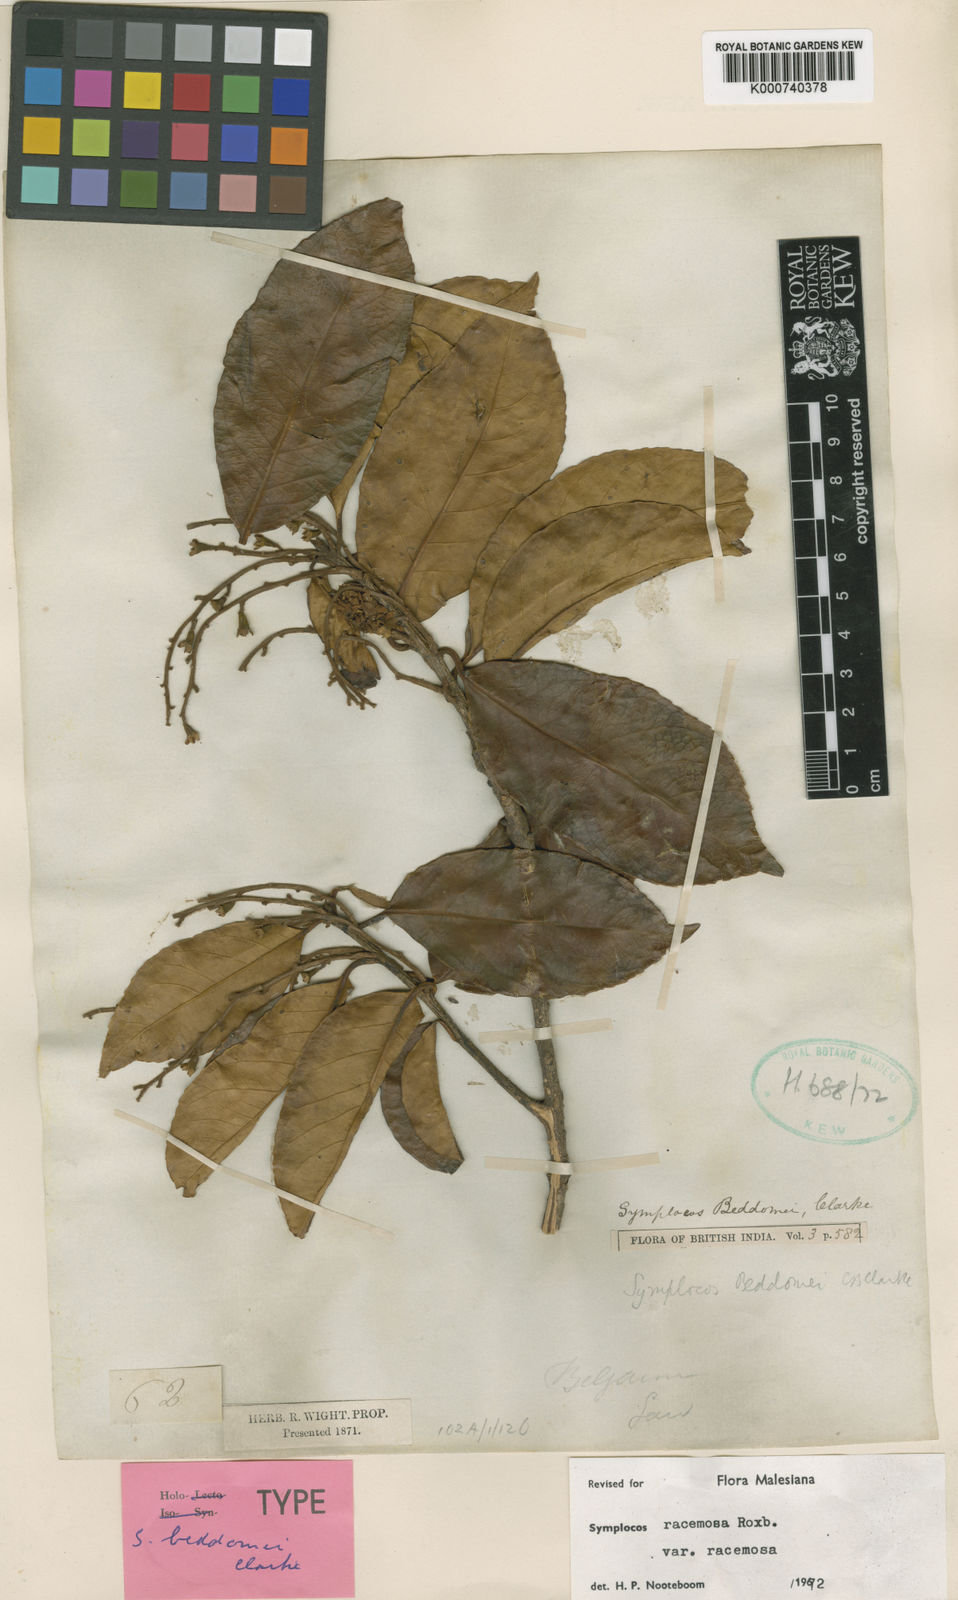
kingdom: Plantae
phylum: Tracheophyta
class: Magnoliopsida
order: Ericales
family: Symplocaceae
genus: Symplocos
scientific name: Symplocos racemosa
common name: Lodhtree
